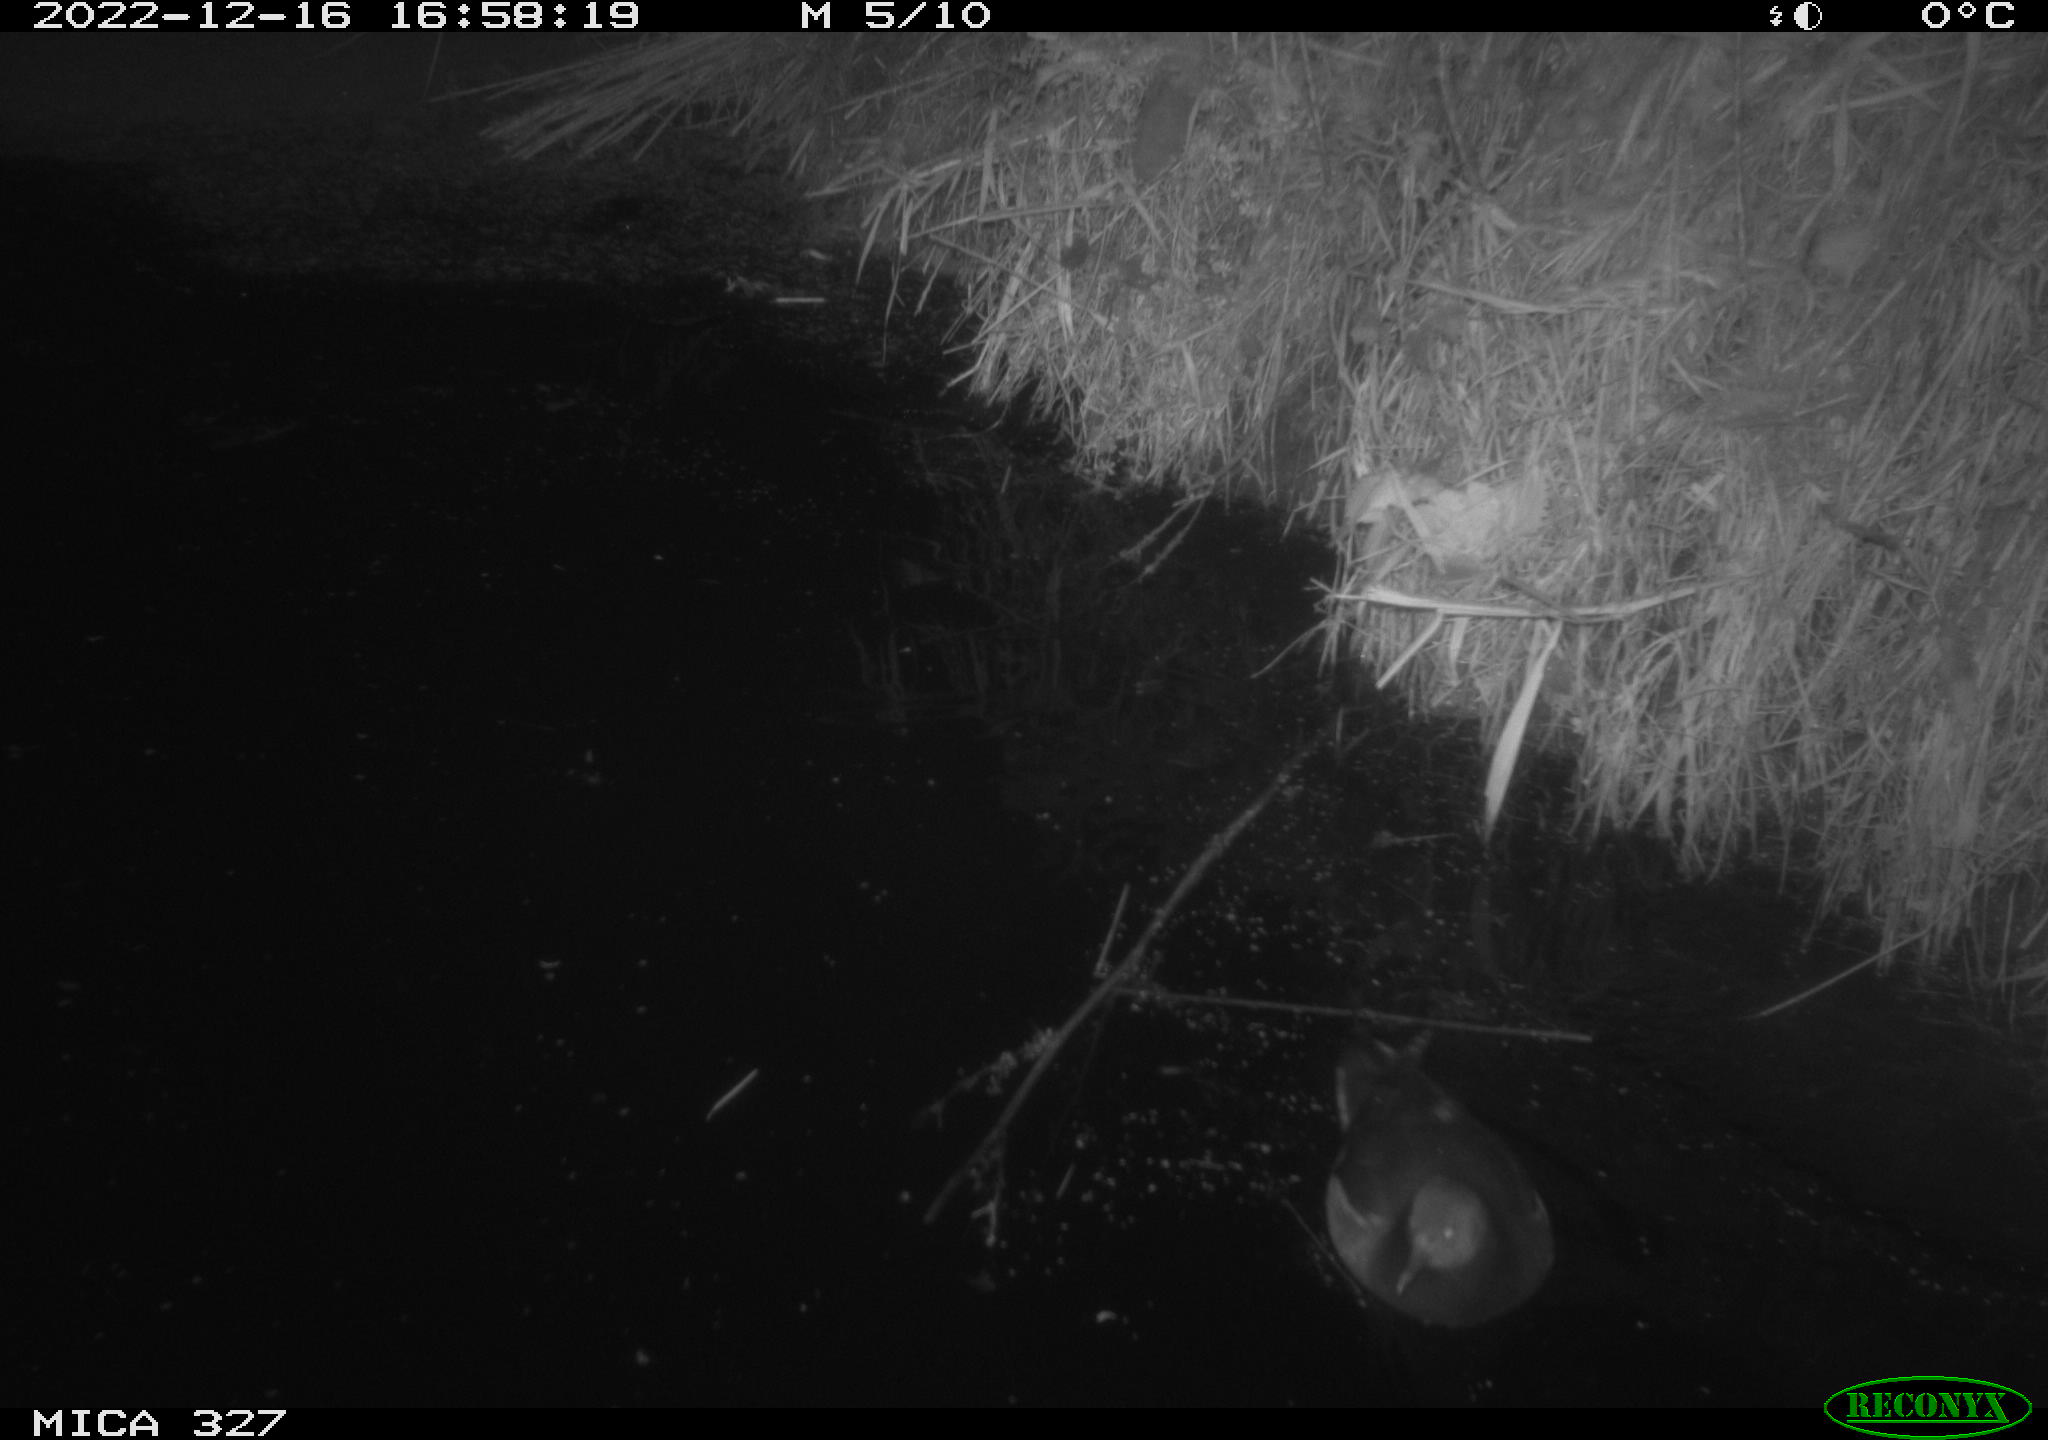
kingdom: Animalia
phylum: Chordata
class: Aves
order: Gruiformes
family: Rallidae
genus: Gallinula
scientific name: Gallinula chloropus
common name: Common moorhen
